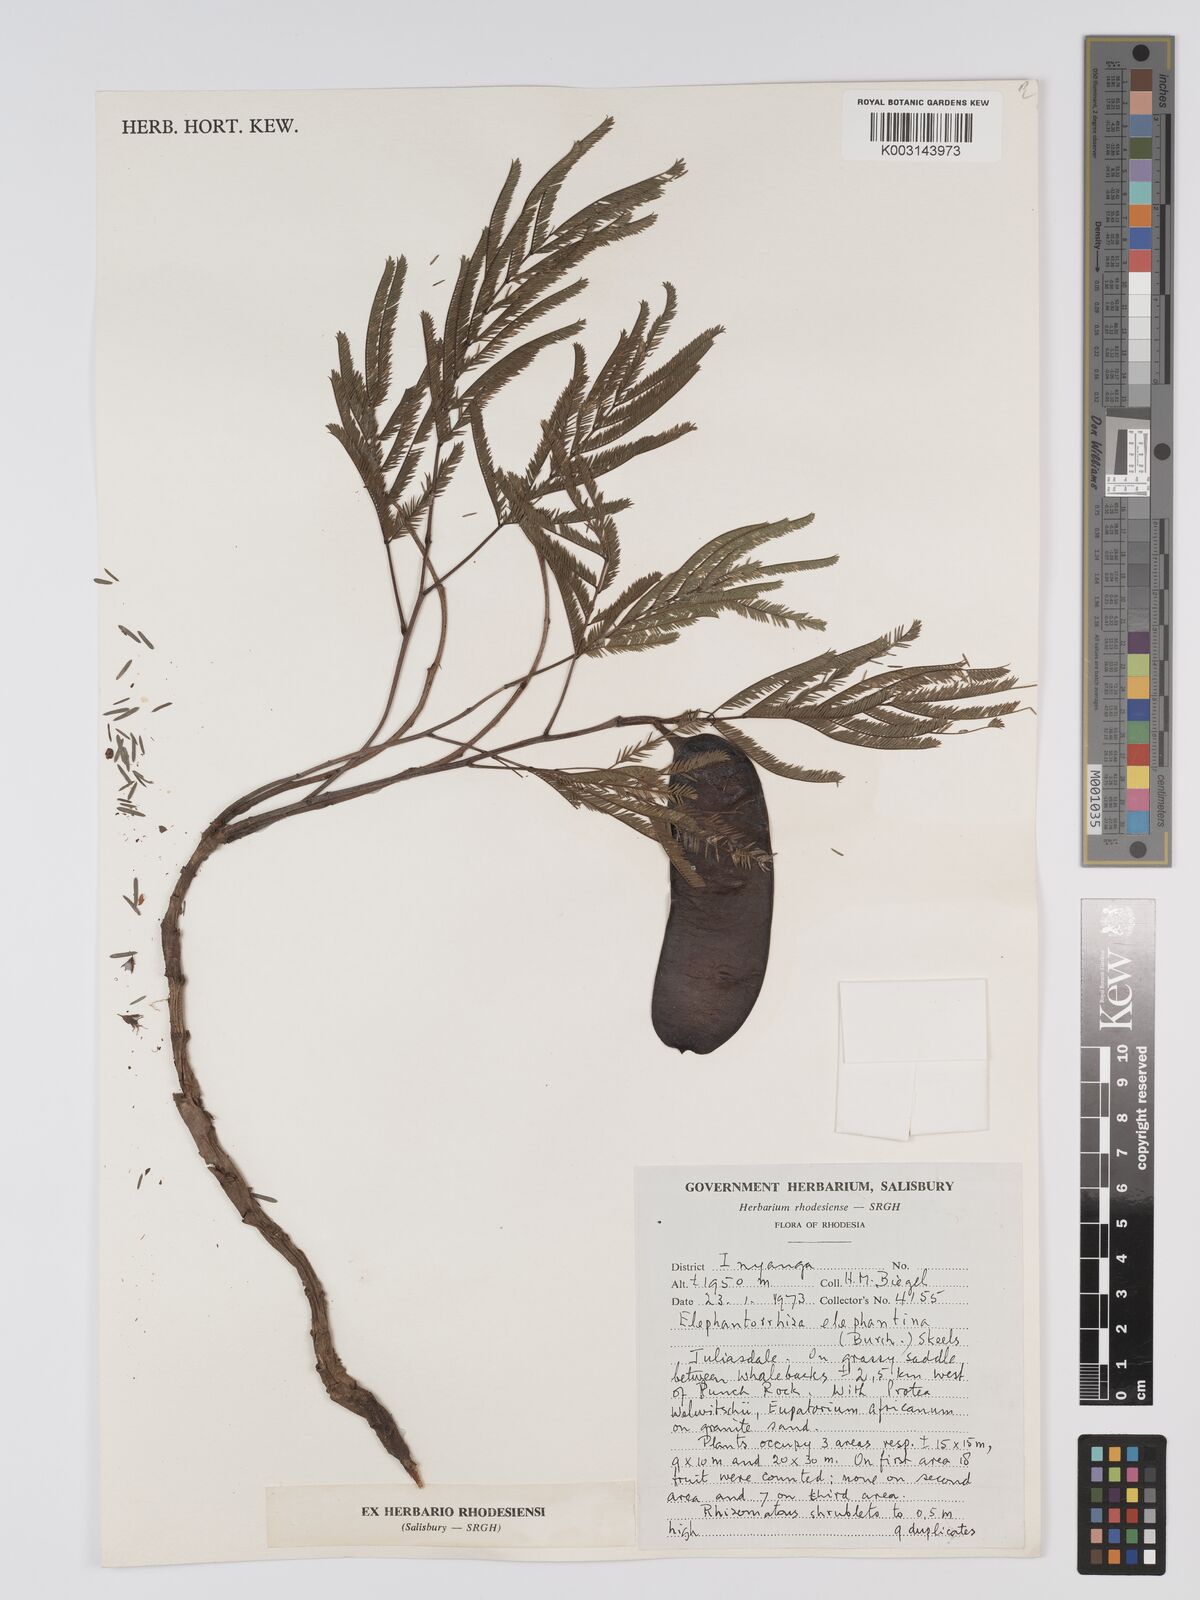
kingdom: Plantae
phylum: Tracheophyta
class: Magnoliopsida
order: Fabales
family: Fabaceae
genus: Elephantorrhiza
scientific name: Elephantorrhiza elephantina
